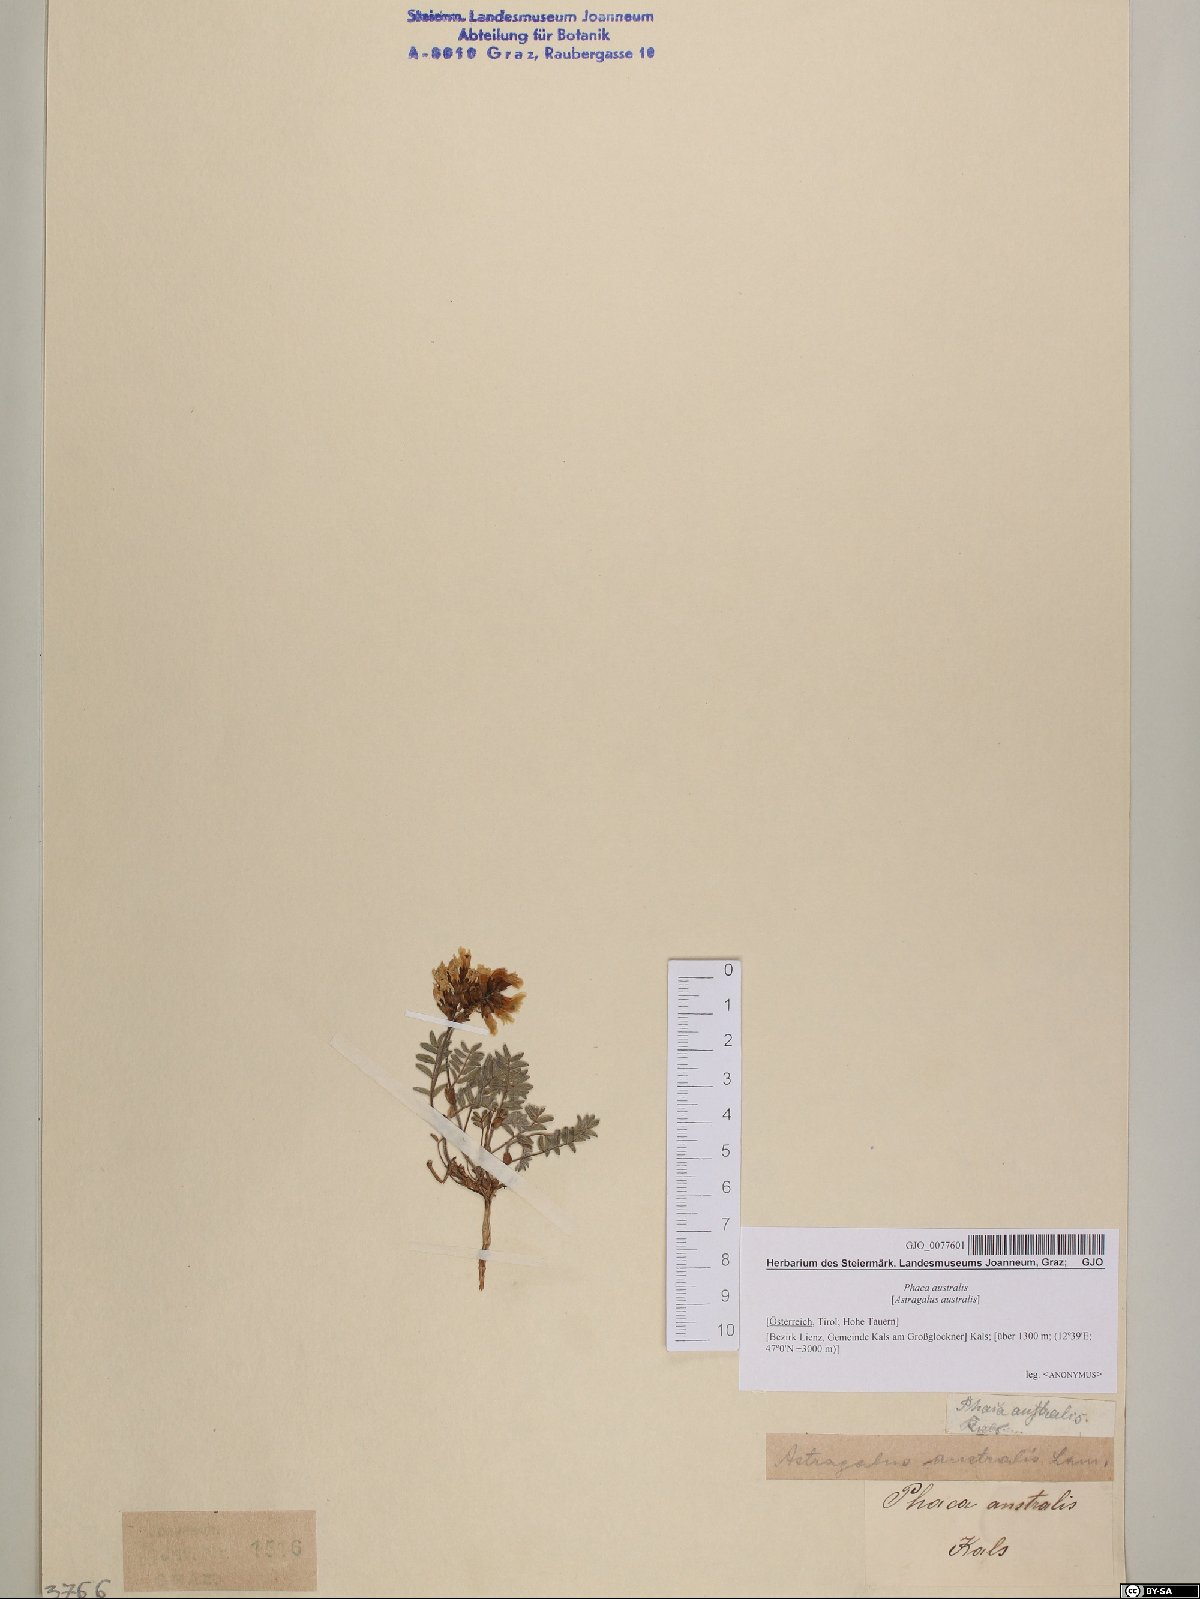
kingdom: Plantae
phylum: Tracheophyta
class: Magnoliopsida
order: Fabales
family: Fabaceae
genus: Astragalus
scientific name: Astragalus australis
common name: Indian milk-vetch
